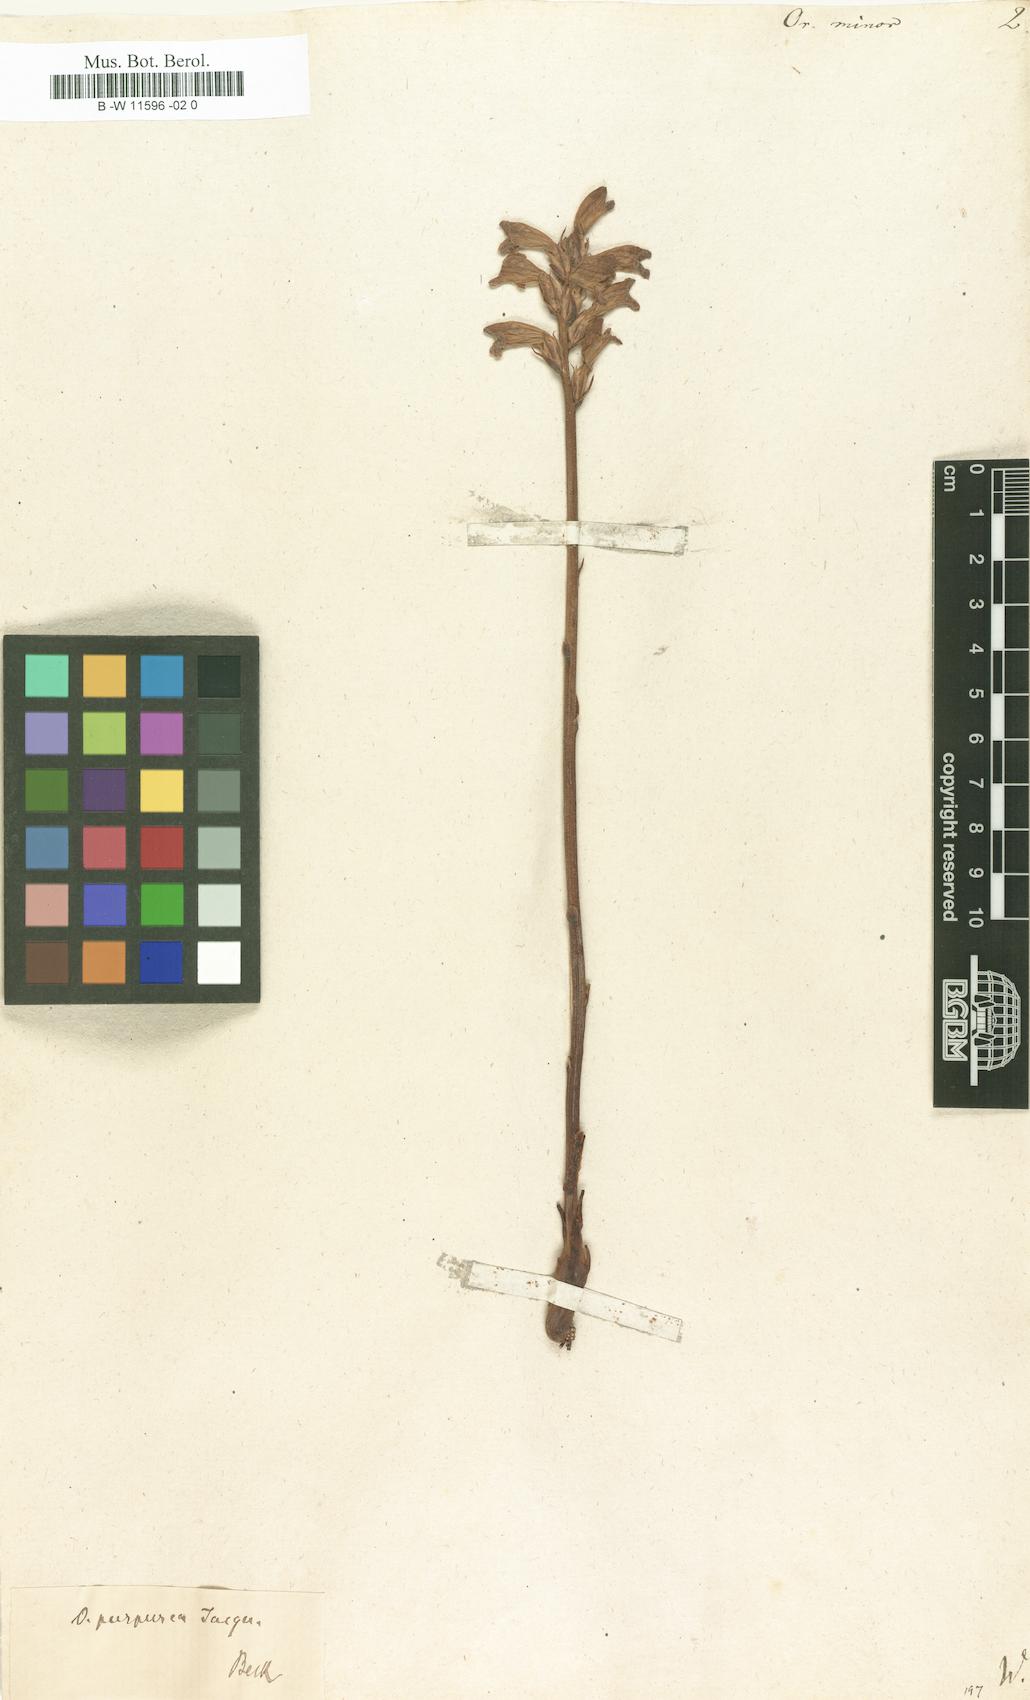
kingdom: Plantae
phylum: Tracheophyta
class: Magnoliopsida
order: Lamiales
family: Orobanchaceae
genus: Orobanche
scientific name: Orobanche minor
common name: Common broomrape
